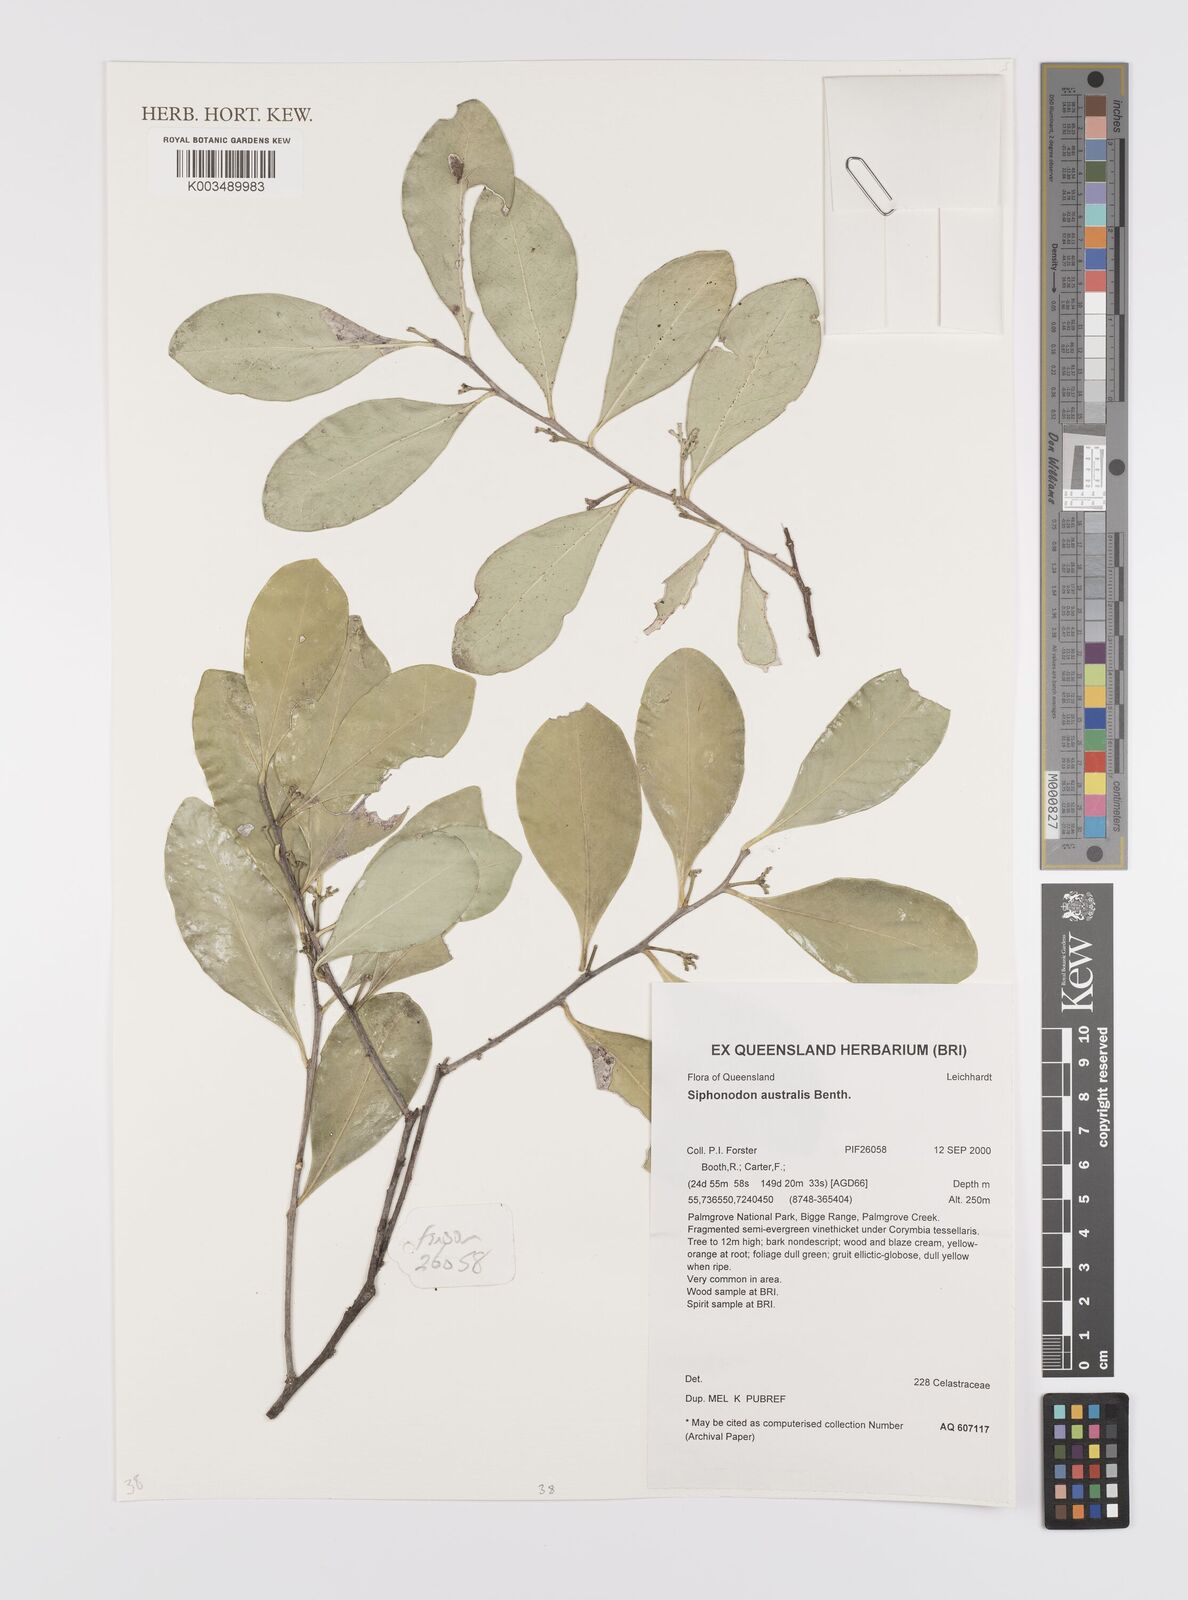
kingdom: Plantae
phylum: Tracheophyta
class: Magnoliopsida
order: Celastrales
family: Celastraceae
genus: Siphonodon
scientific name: Siphonodon australis
